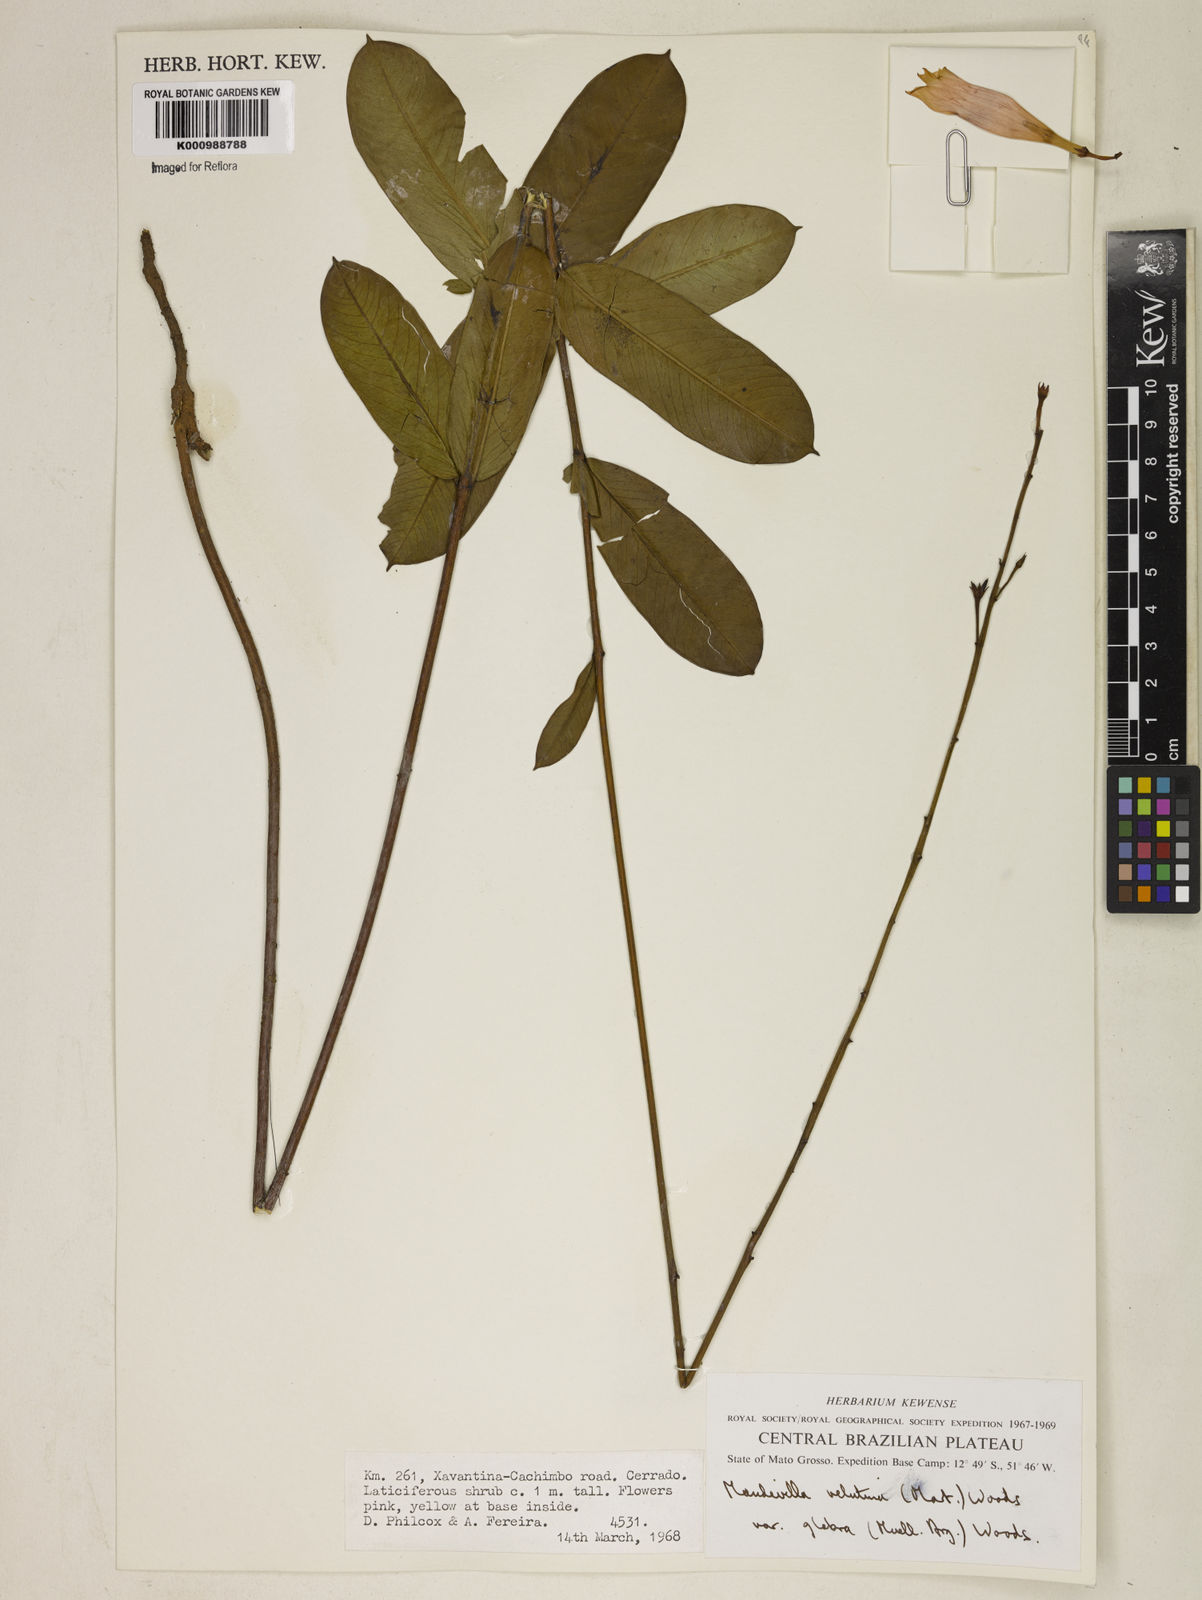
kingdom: Plantae
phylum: Tracheophyta
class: Magnoliopsida
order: Gentianales
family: Apocynaceae
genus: Mandevilla
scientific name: Mandevilla pohliana
